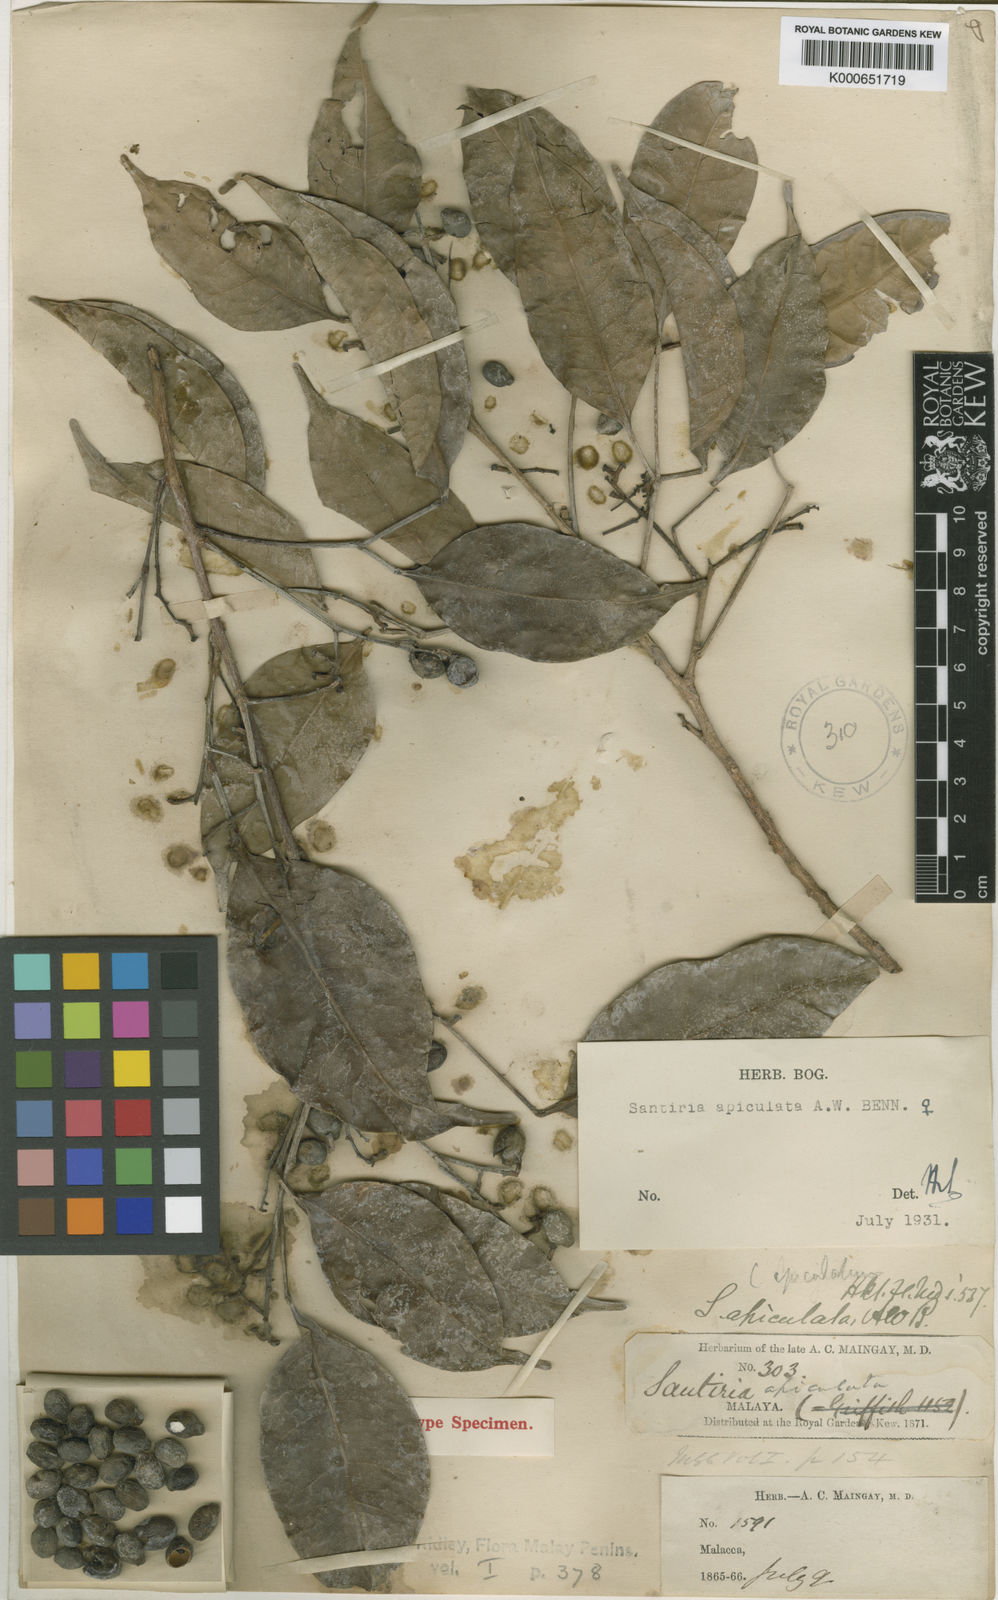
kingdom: Plantae
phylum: Tracheophyta
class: Magnoliopsida
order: Sapindales
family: Burseraceae
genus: Santiria
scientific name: Santiria apiculata
